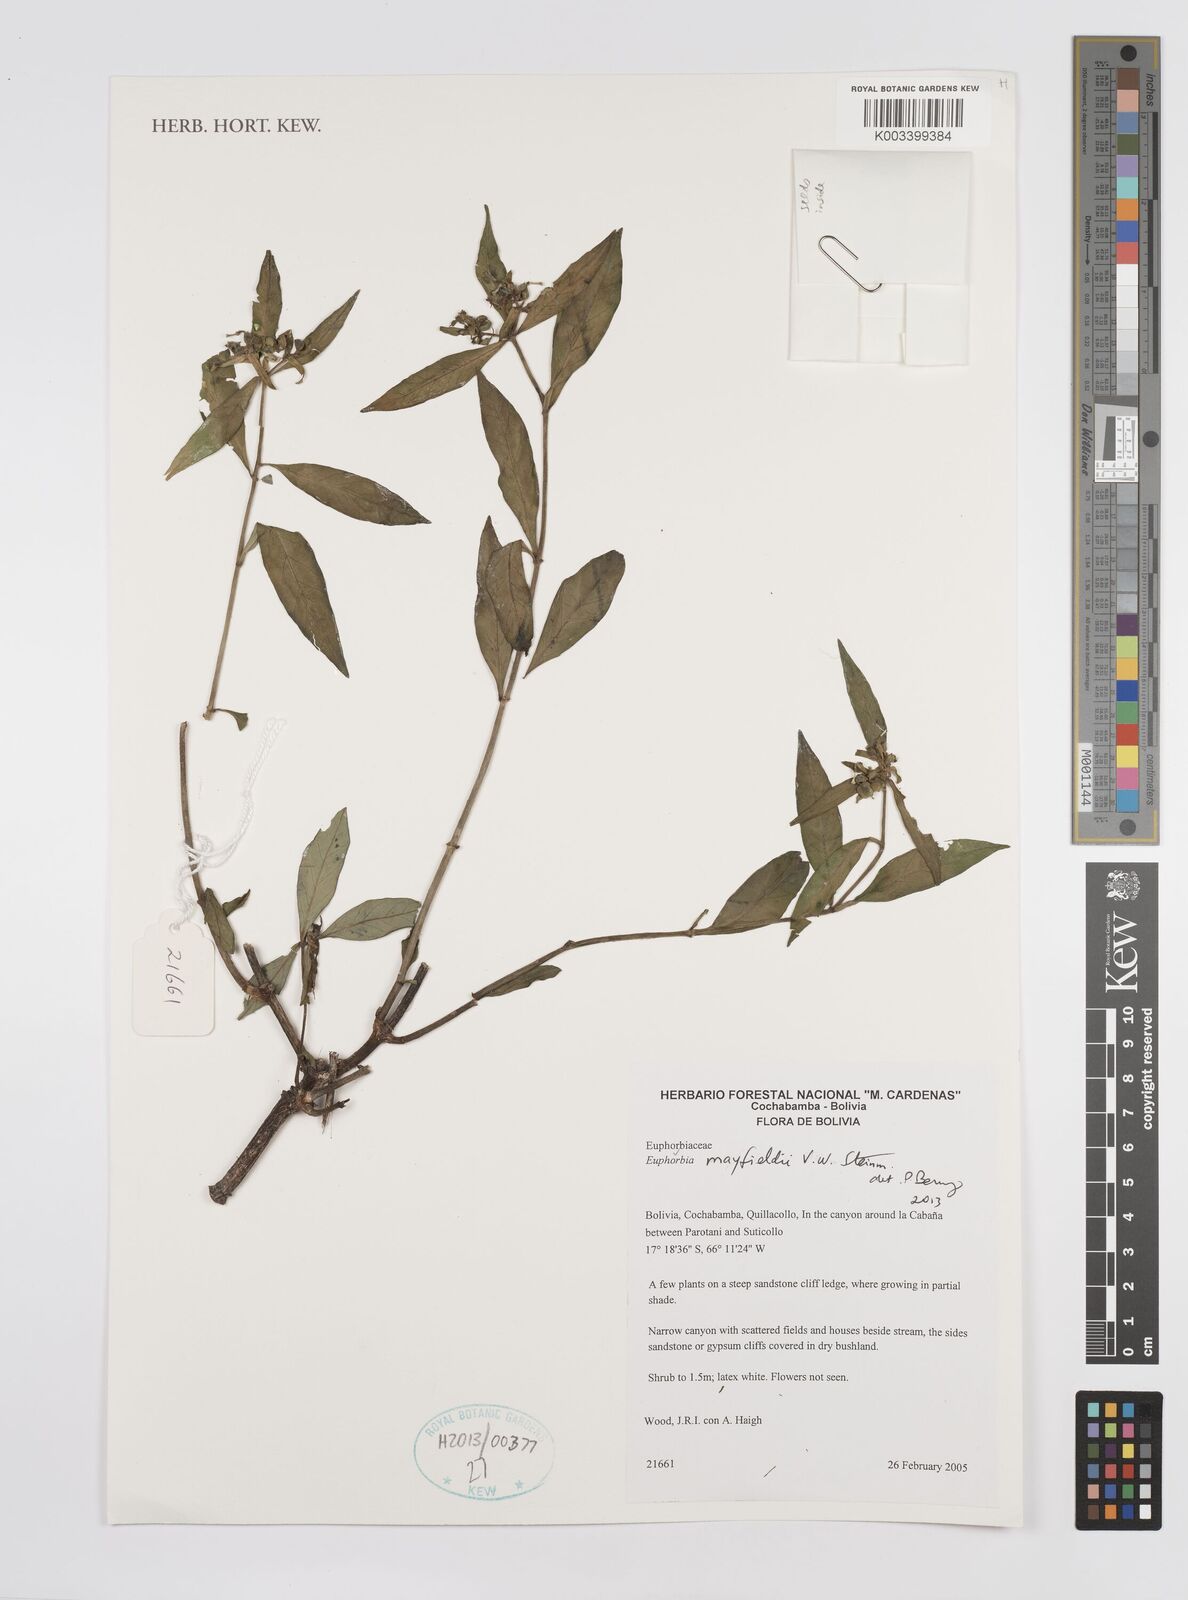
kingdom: Plantae
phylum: Tracheophyta
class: Magnoliopsida
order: Malpighiales
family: Euphorbiaceae
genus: Euphorbia
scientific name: Euphorbia mayfieldii
